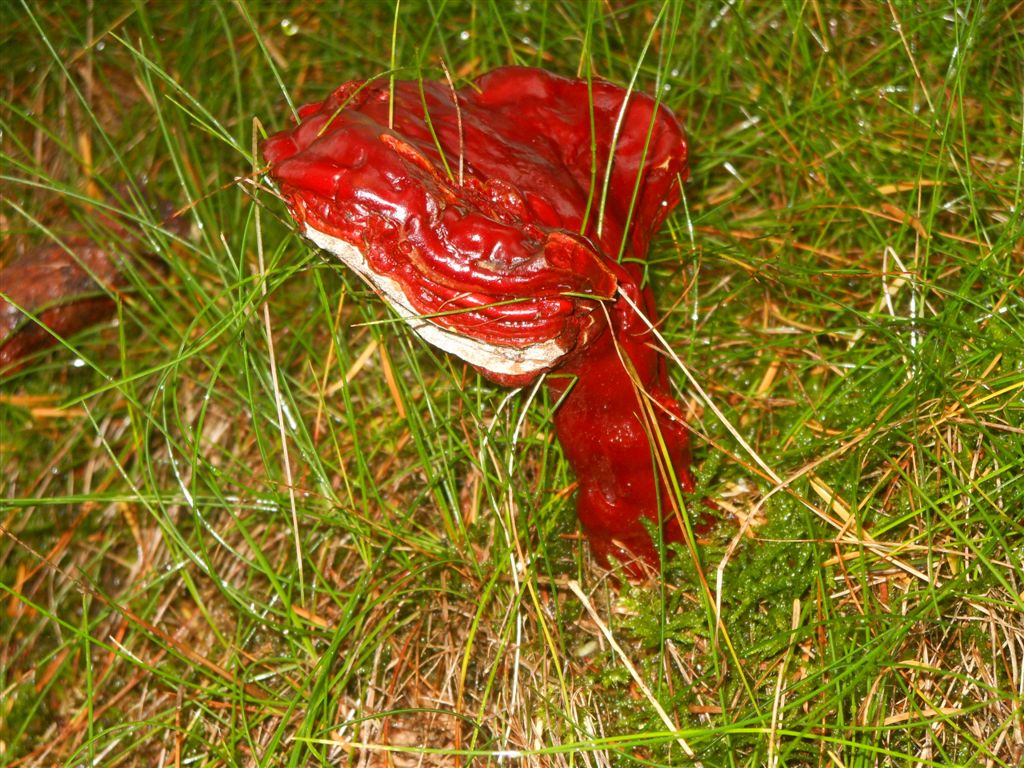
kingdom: Fungi
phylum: Basidiomycota
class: Agaricomycetes
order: Polyporales
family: Polyporaceae
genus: Ganoderma
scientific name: Ganoderma lucidum
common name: skinnende lakporesvamp
